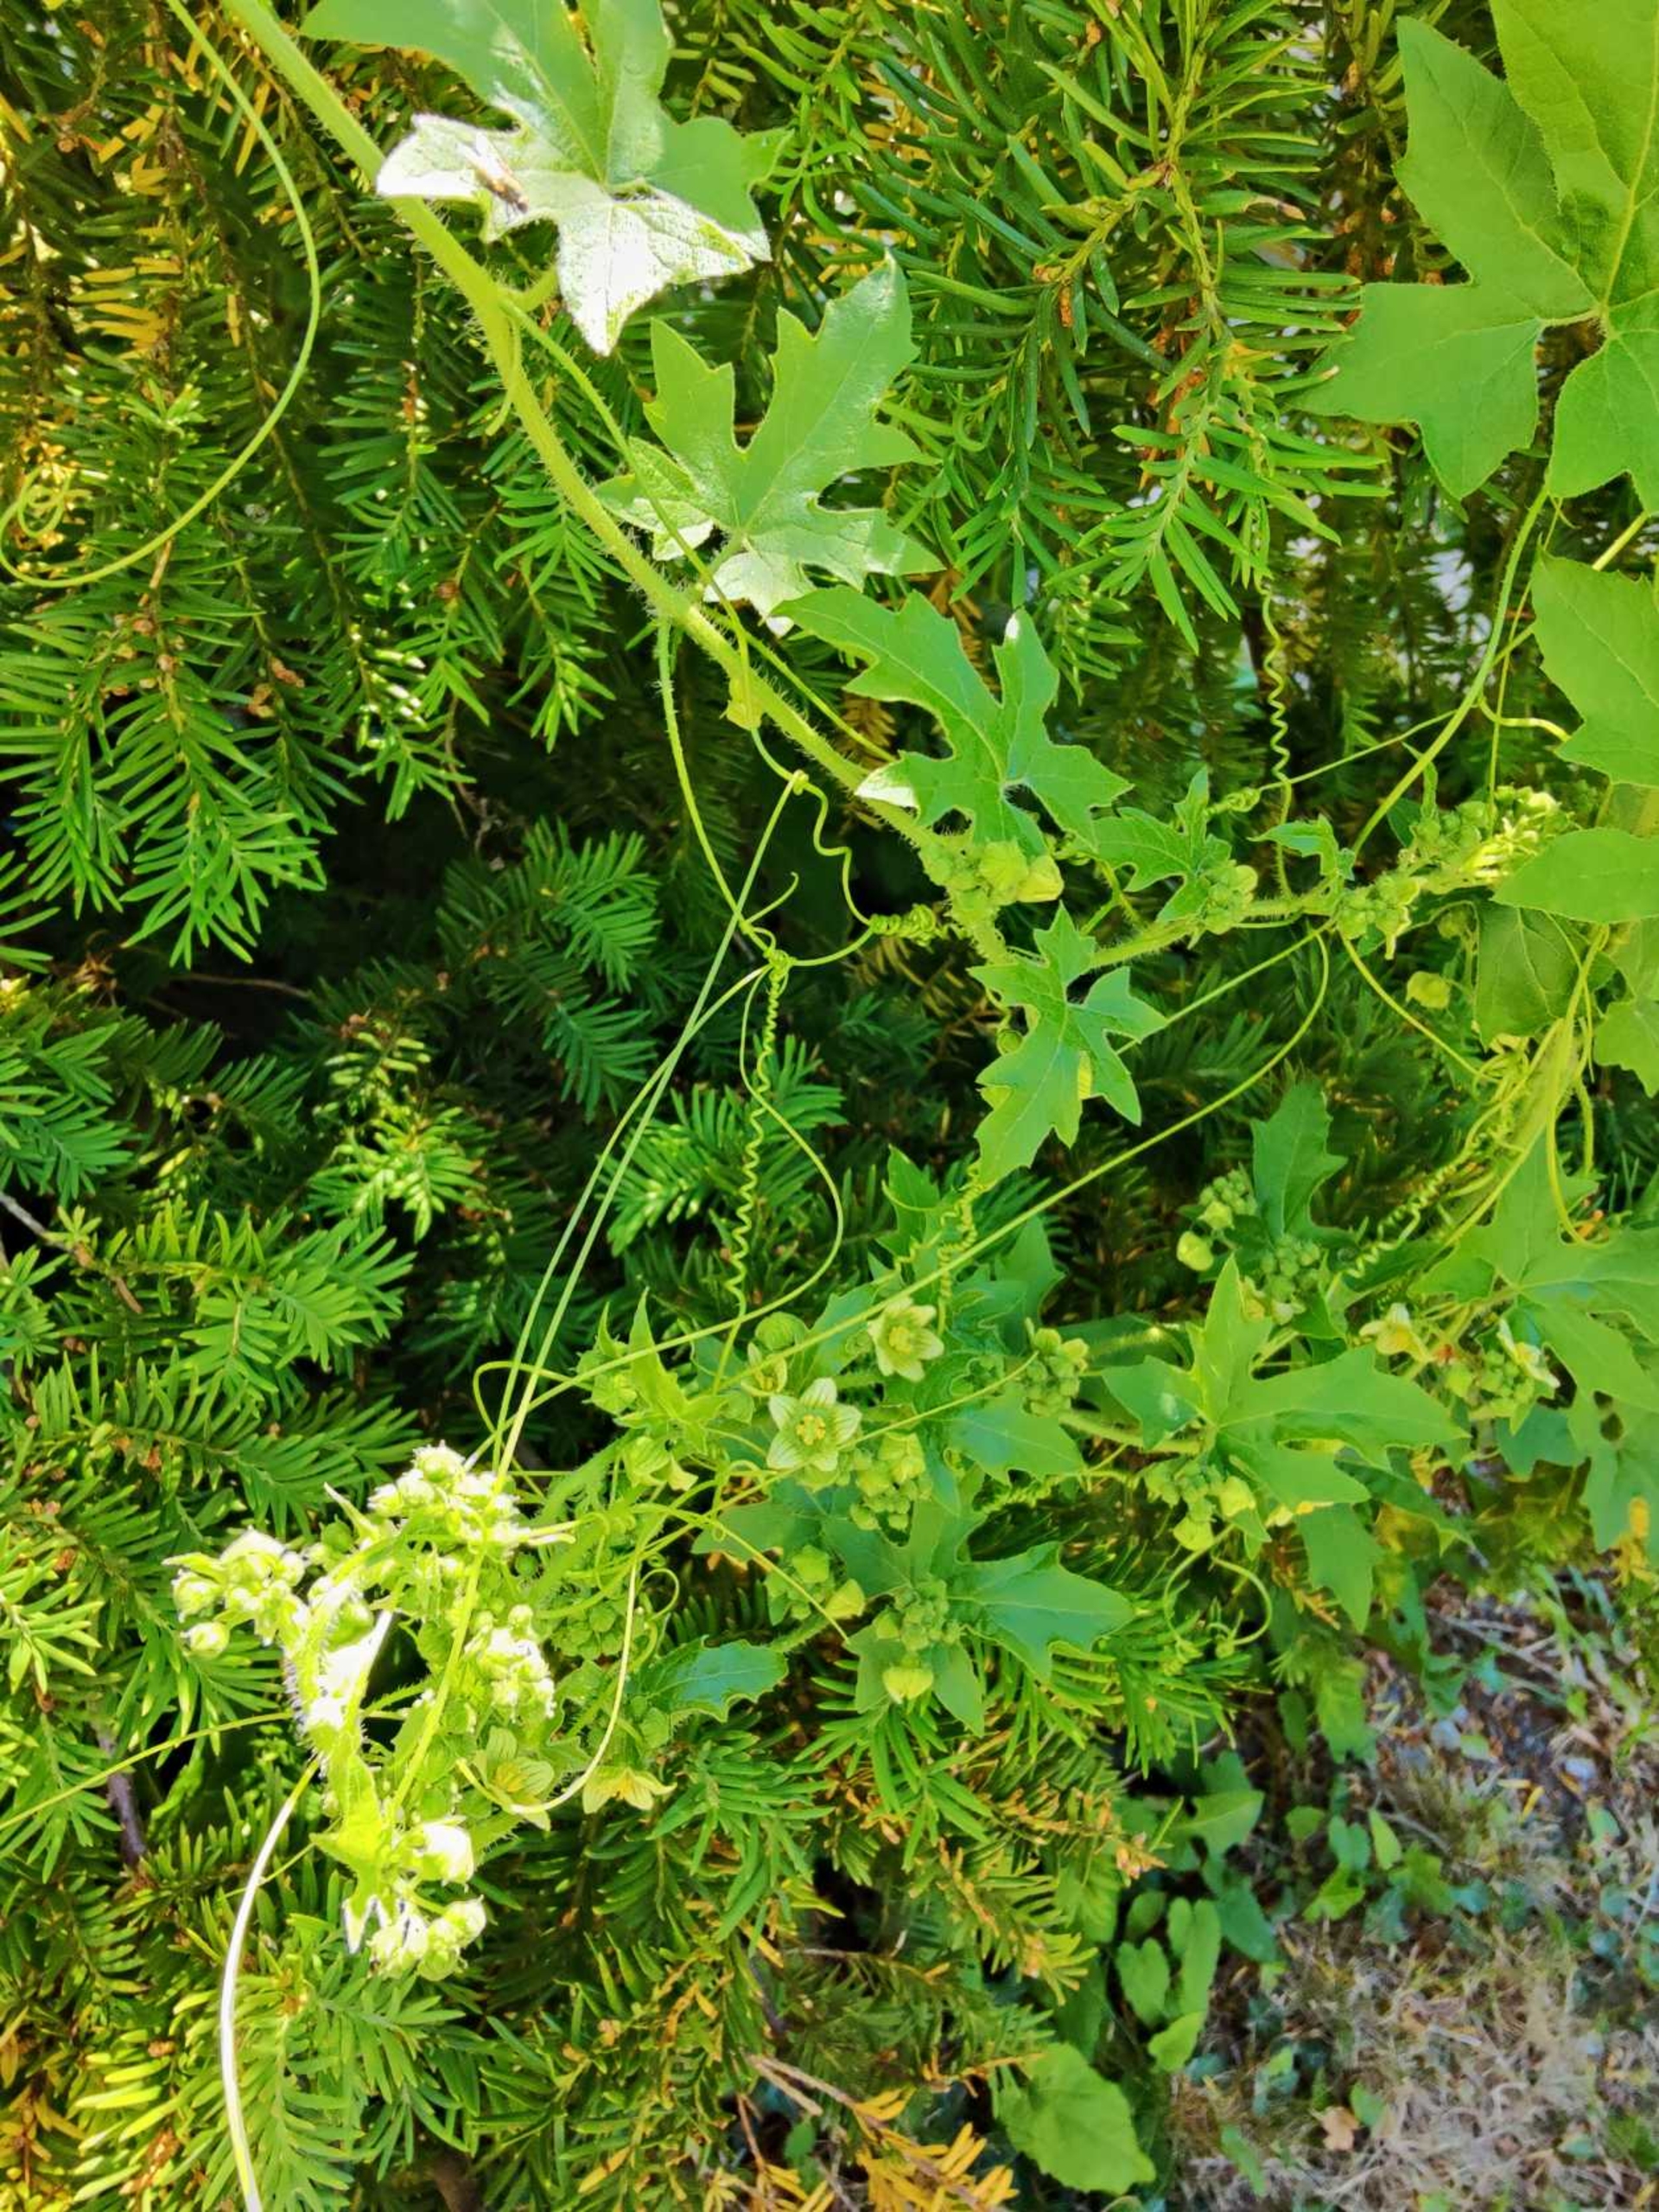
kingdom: Plantae
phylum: Tracheophyta
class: Magnoliopsida
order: Cucurbitales
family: Cucurbitaceae
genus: Bryonia
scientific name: Bryonia dioica
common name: Tvebo galdebær
